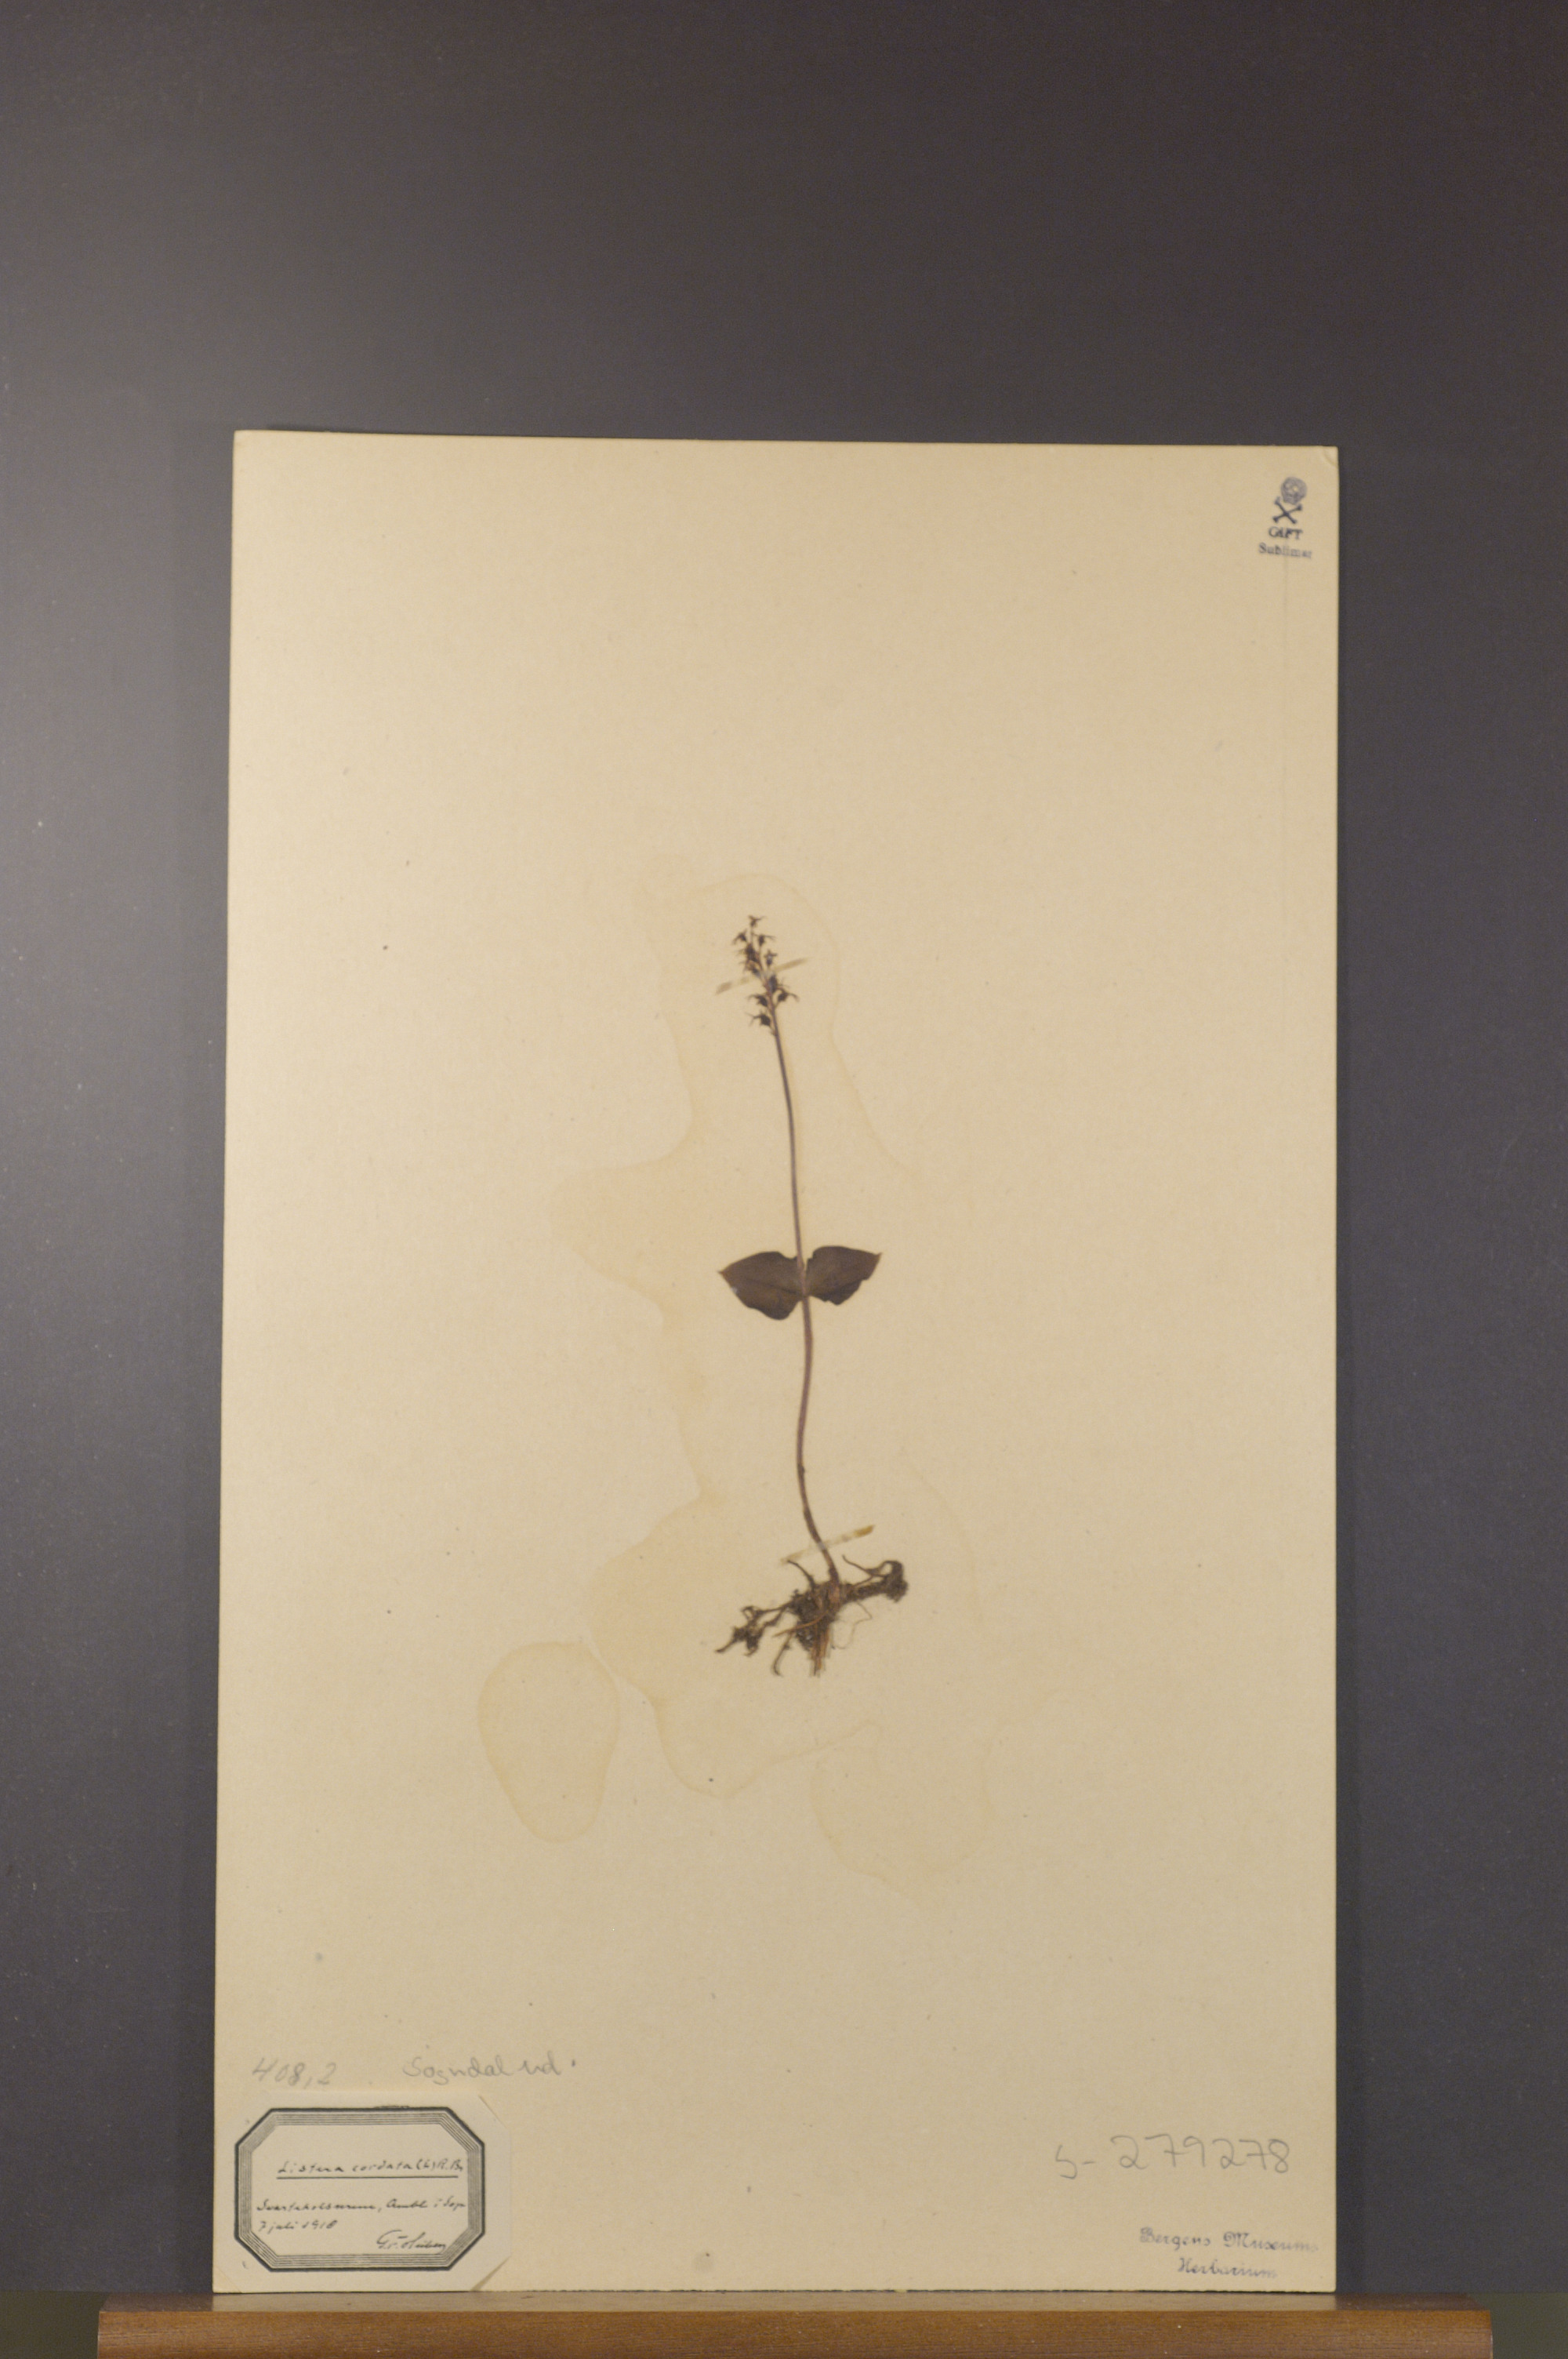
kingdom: Plantae
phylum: Tracheophyta
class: Liliopsida
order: Asparagales
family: Orchidaceae
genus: Neottia
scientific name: Neottia cordata
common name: Lesser twayblade
